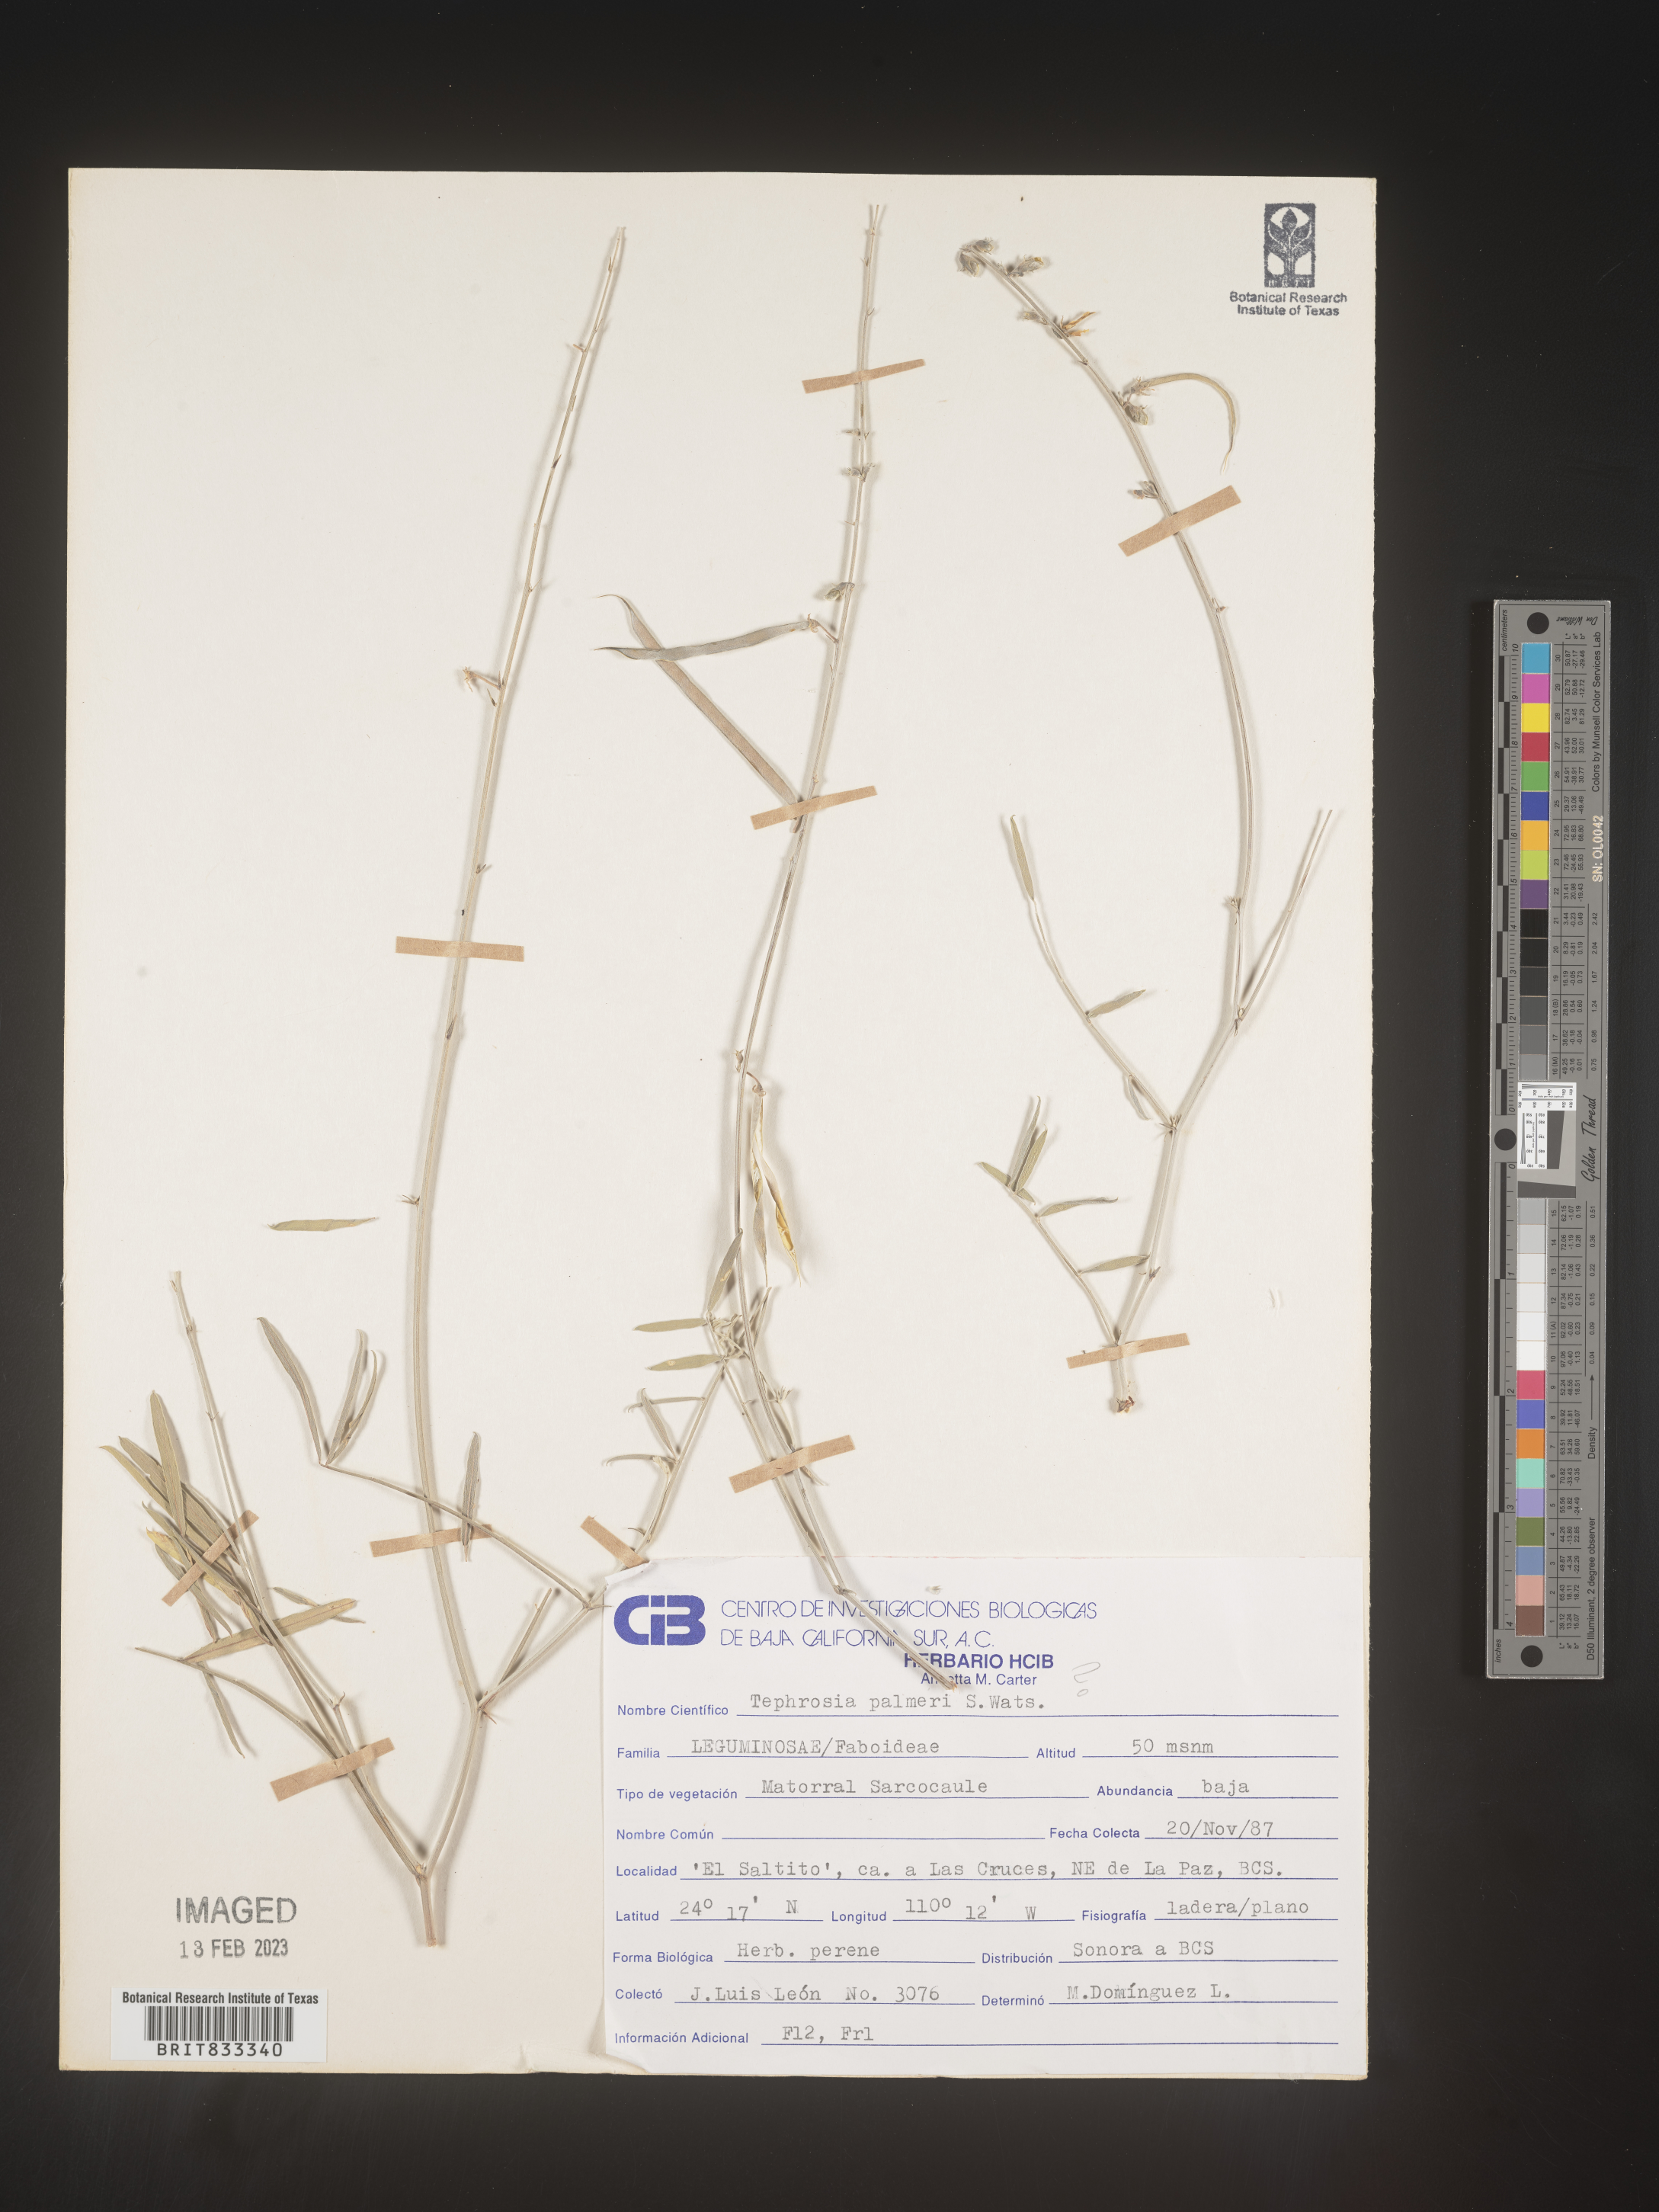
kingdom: Plantae
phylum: Tracheophyta
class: Magnoliopsida
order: Fabales
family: Fabaceae
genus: Tephrosia
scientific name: Tephrosia
